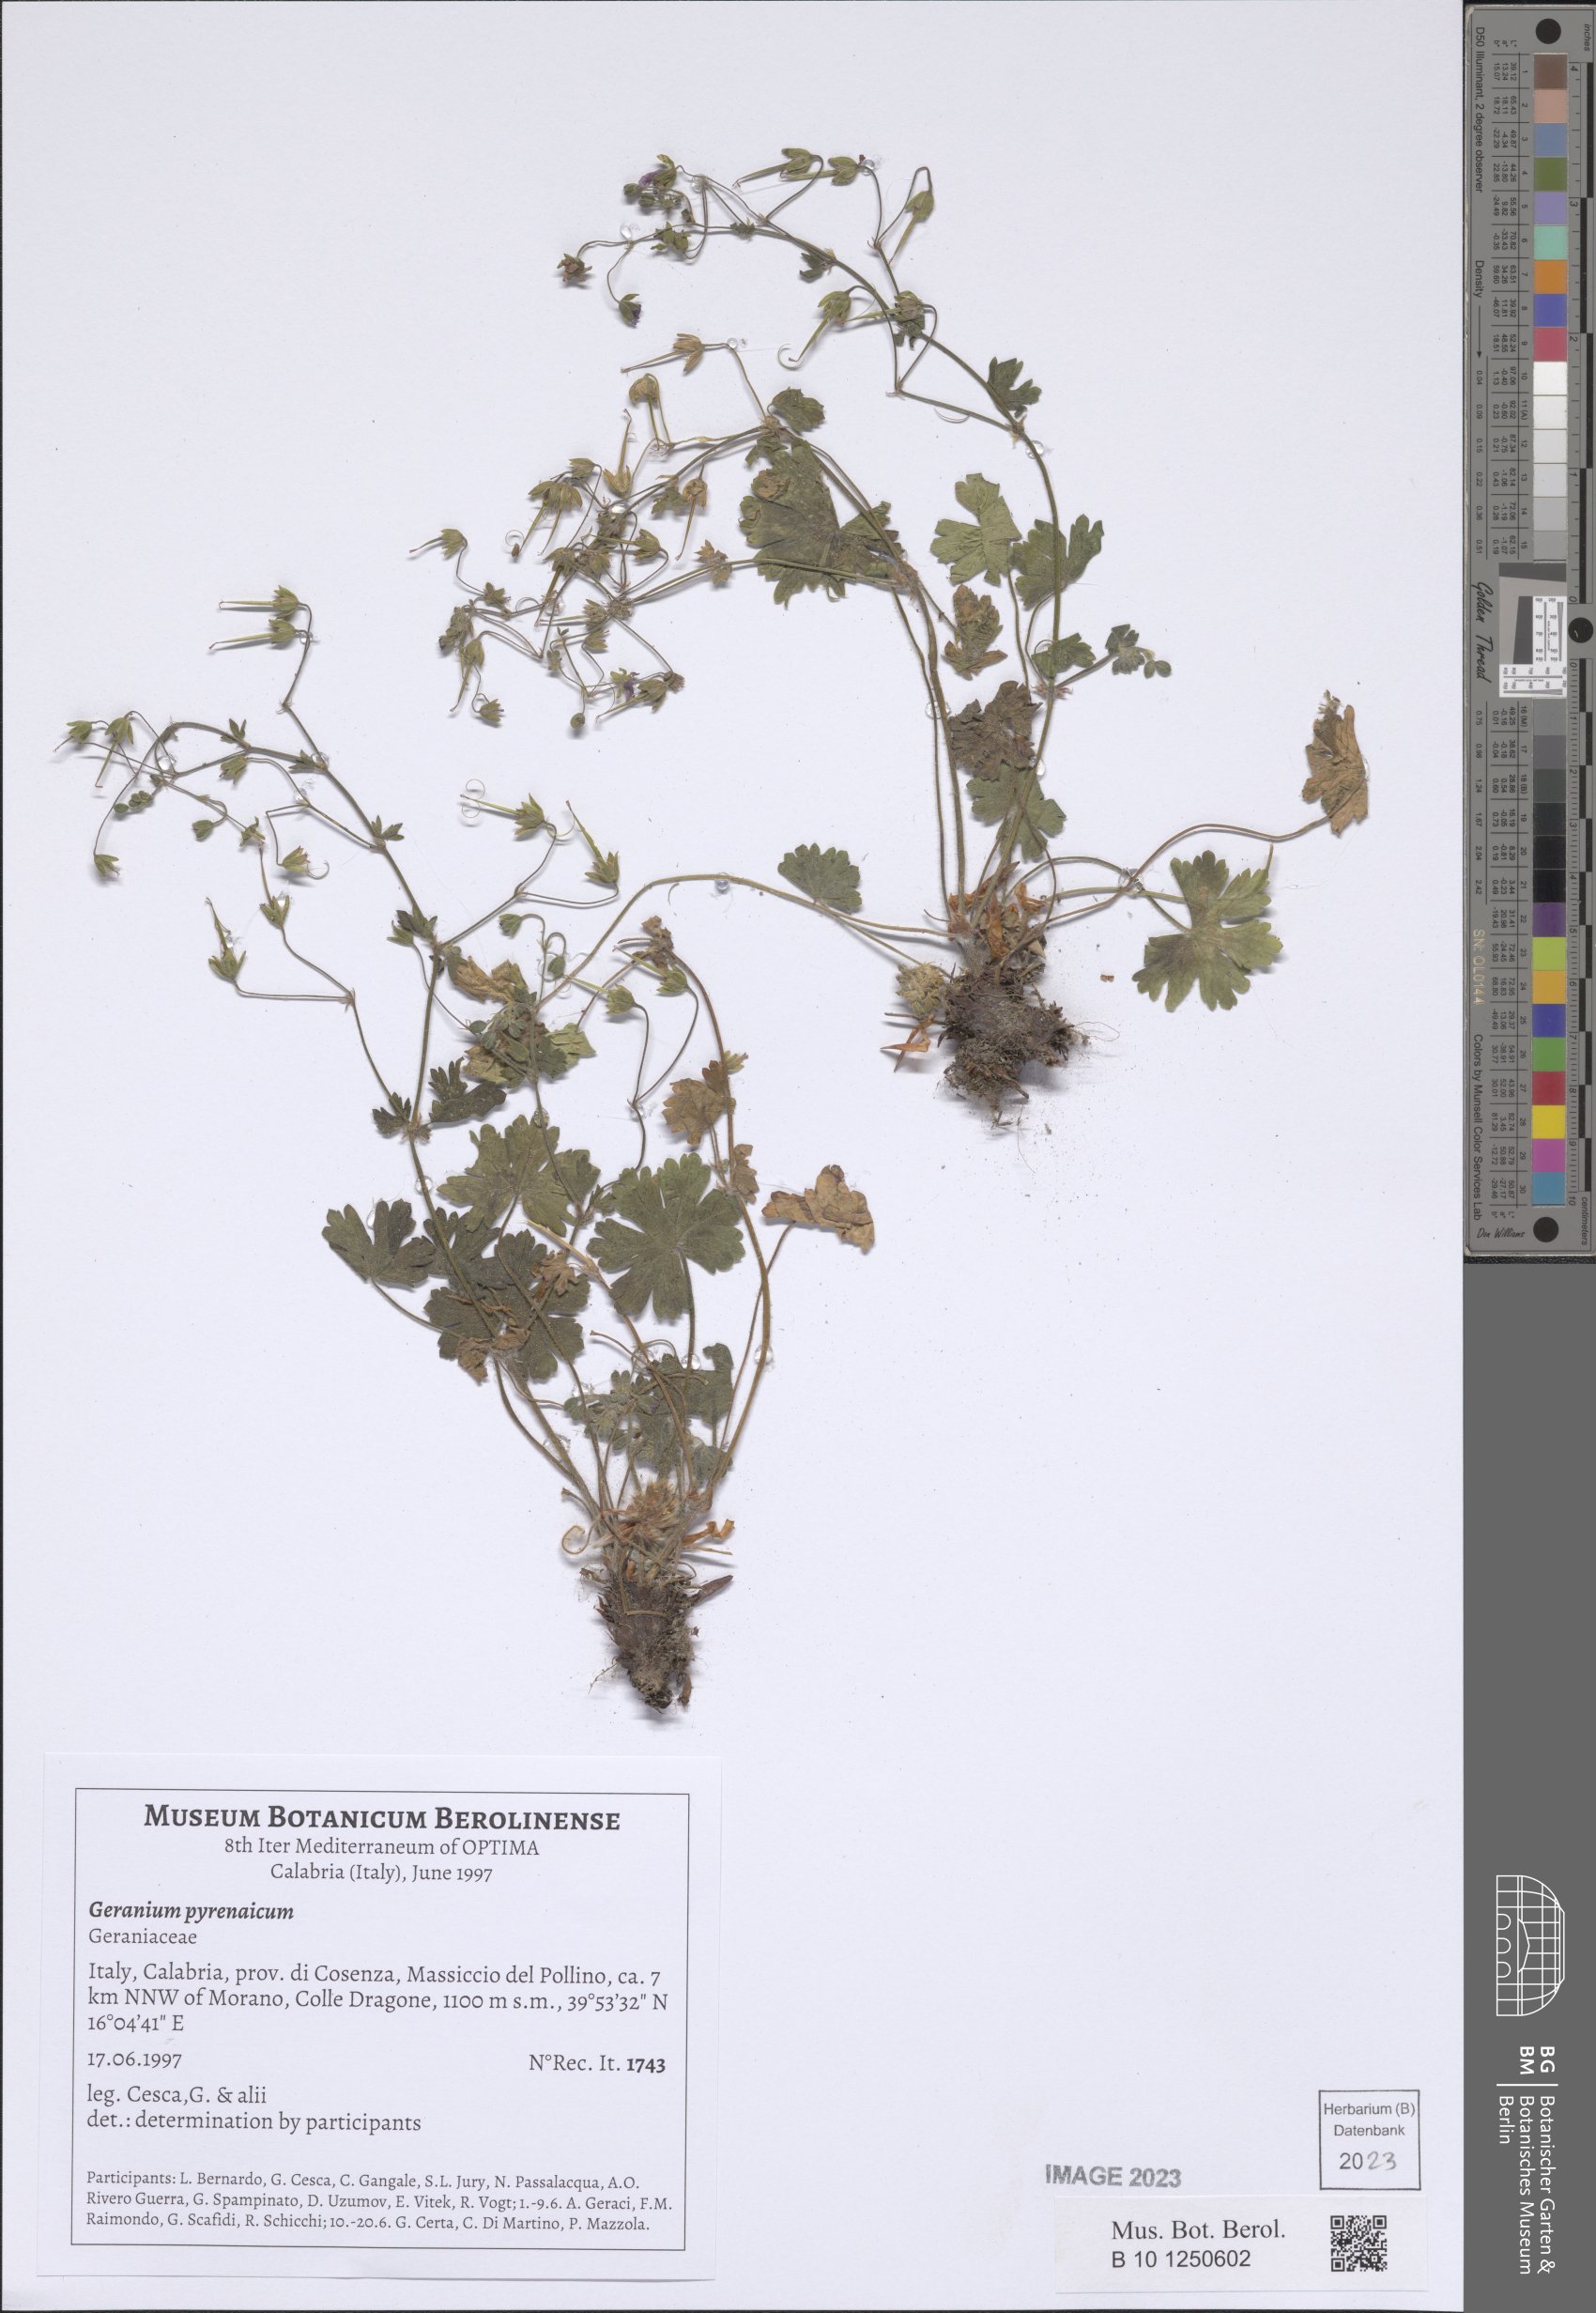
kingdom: Plantae
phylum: Tracheophyta
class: Magnoliopsida
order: Geraniales
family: Geraniaceae
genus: Geranium
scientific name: Geranium pyrenaicum
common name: Hedgerow crane's-bill
